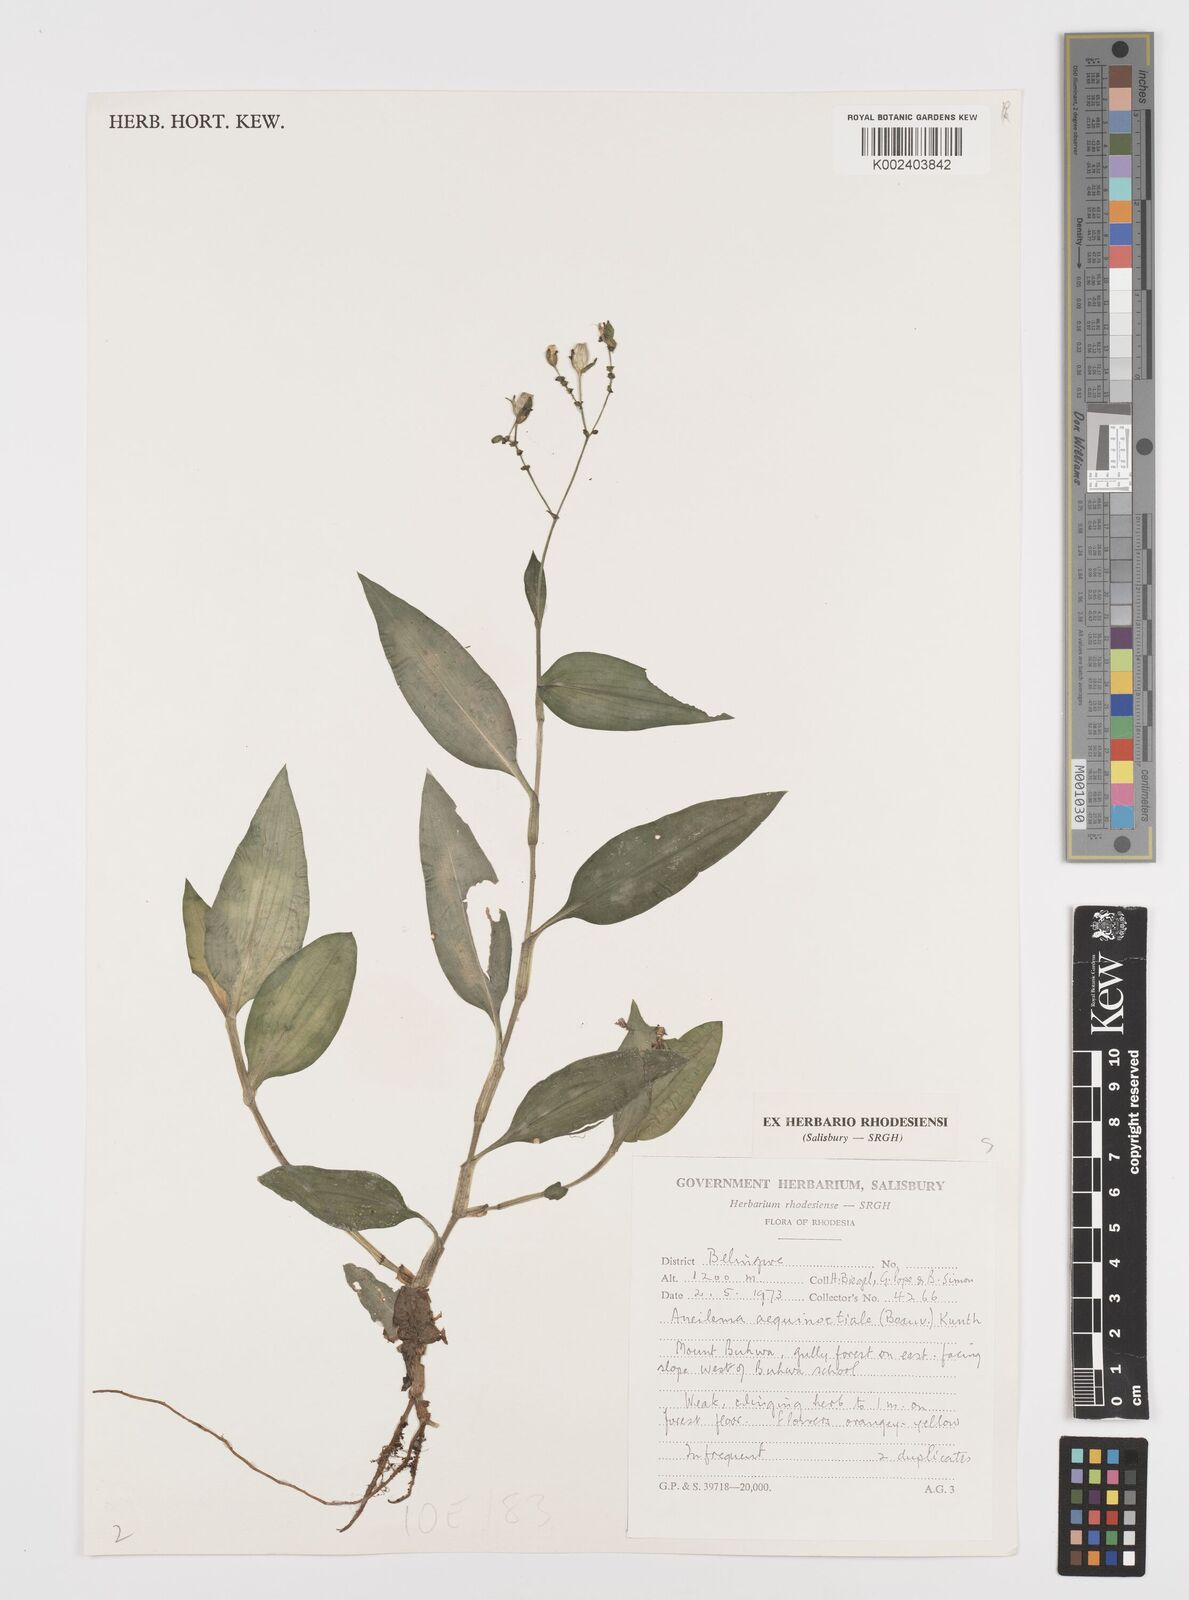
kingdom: Plantae
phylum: Tracheophyta
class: Liliopsida
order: Commelinales
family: Commelinaceae
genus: Aneilema
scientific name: Aneilema aequinoctiale
